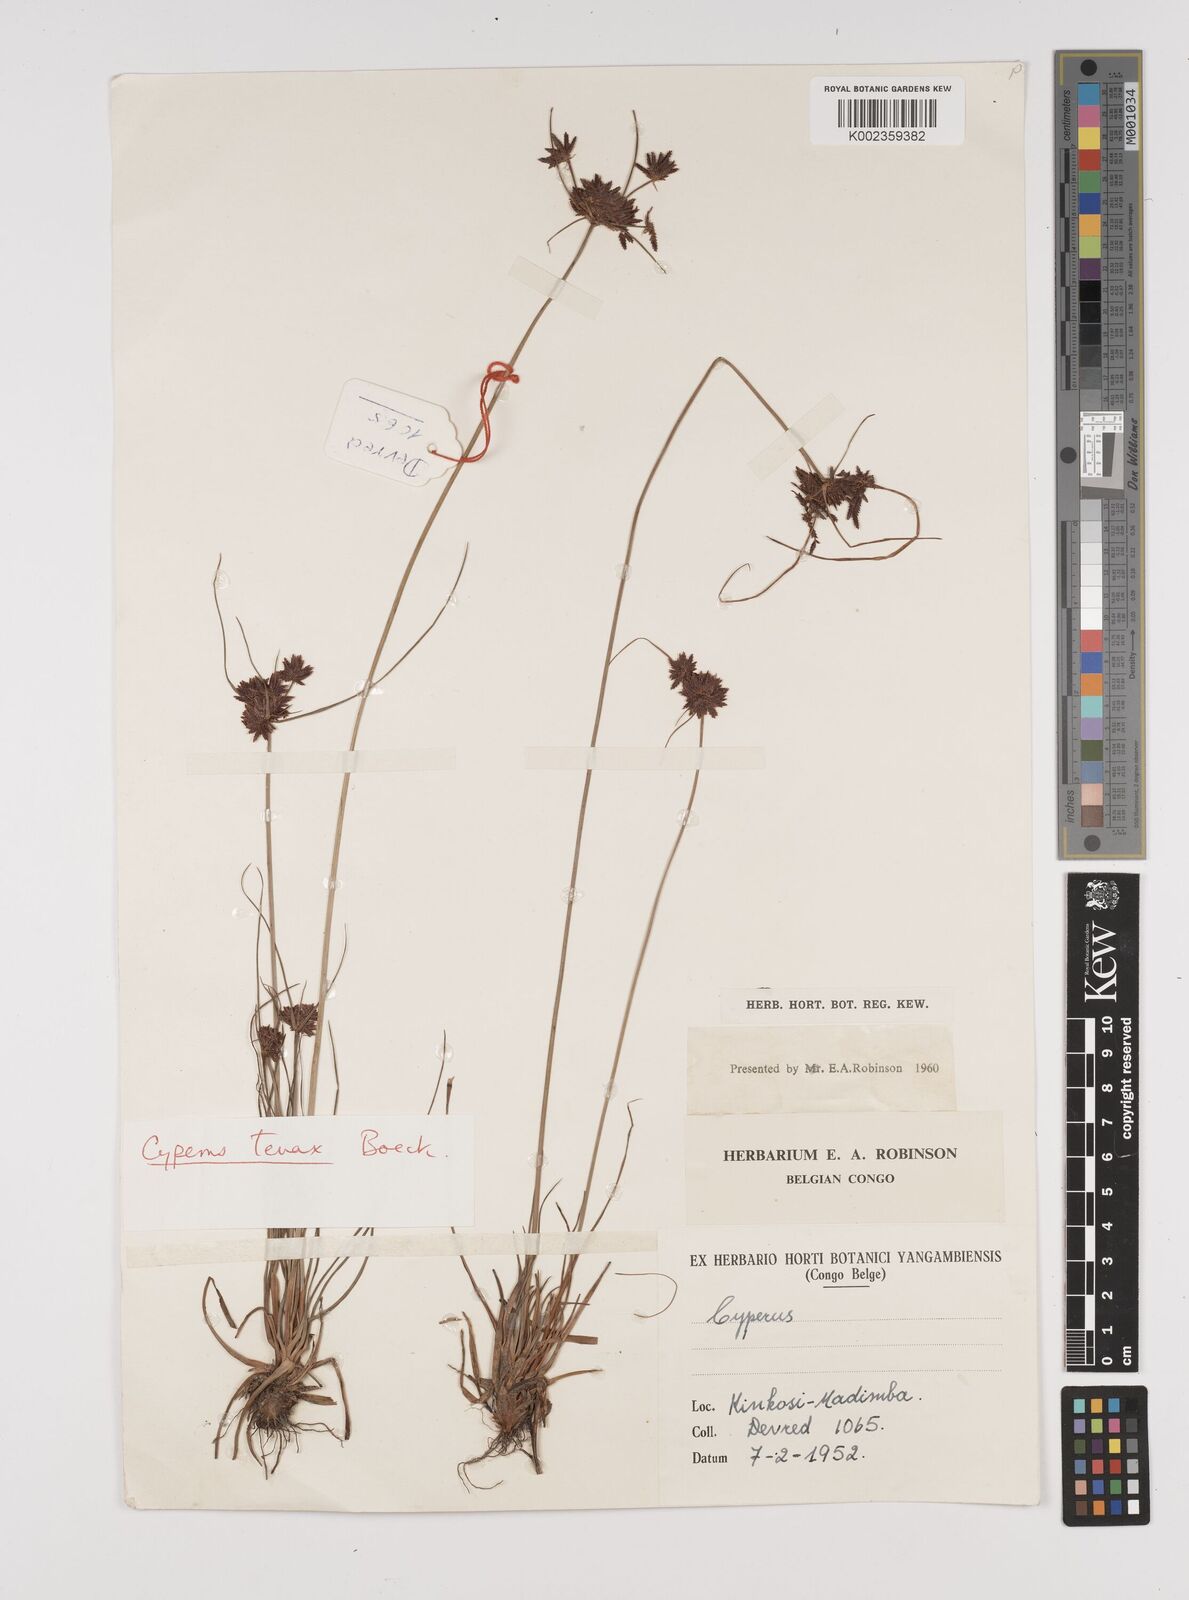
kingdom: Plantae
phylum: Tracheophyta
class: Liliopsida
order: Poales
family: Cyperaceae
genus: Cyperus
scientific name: Cyperus tenax
